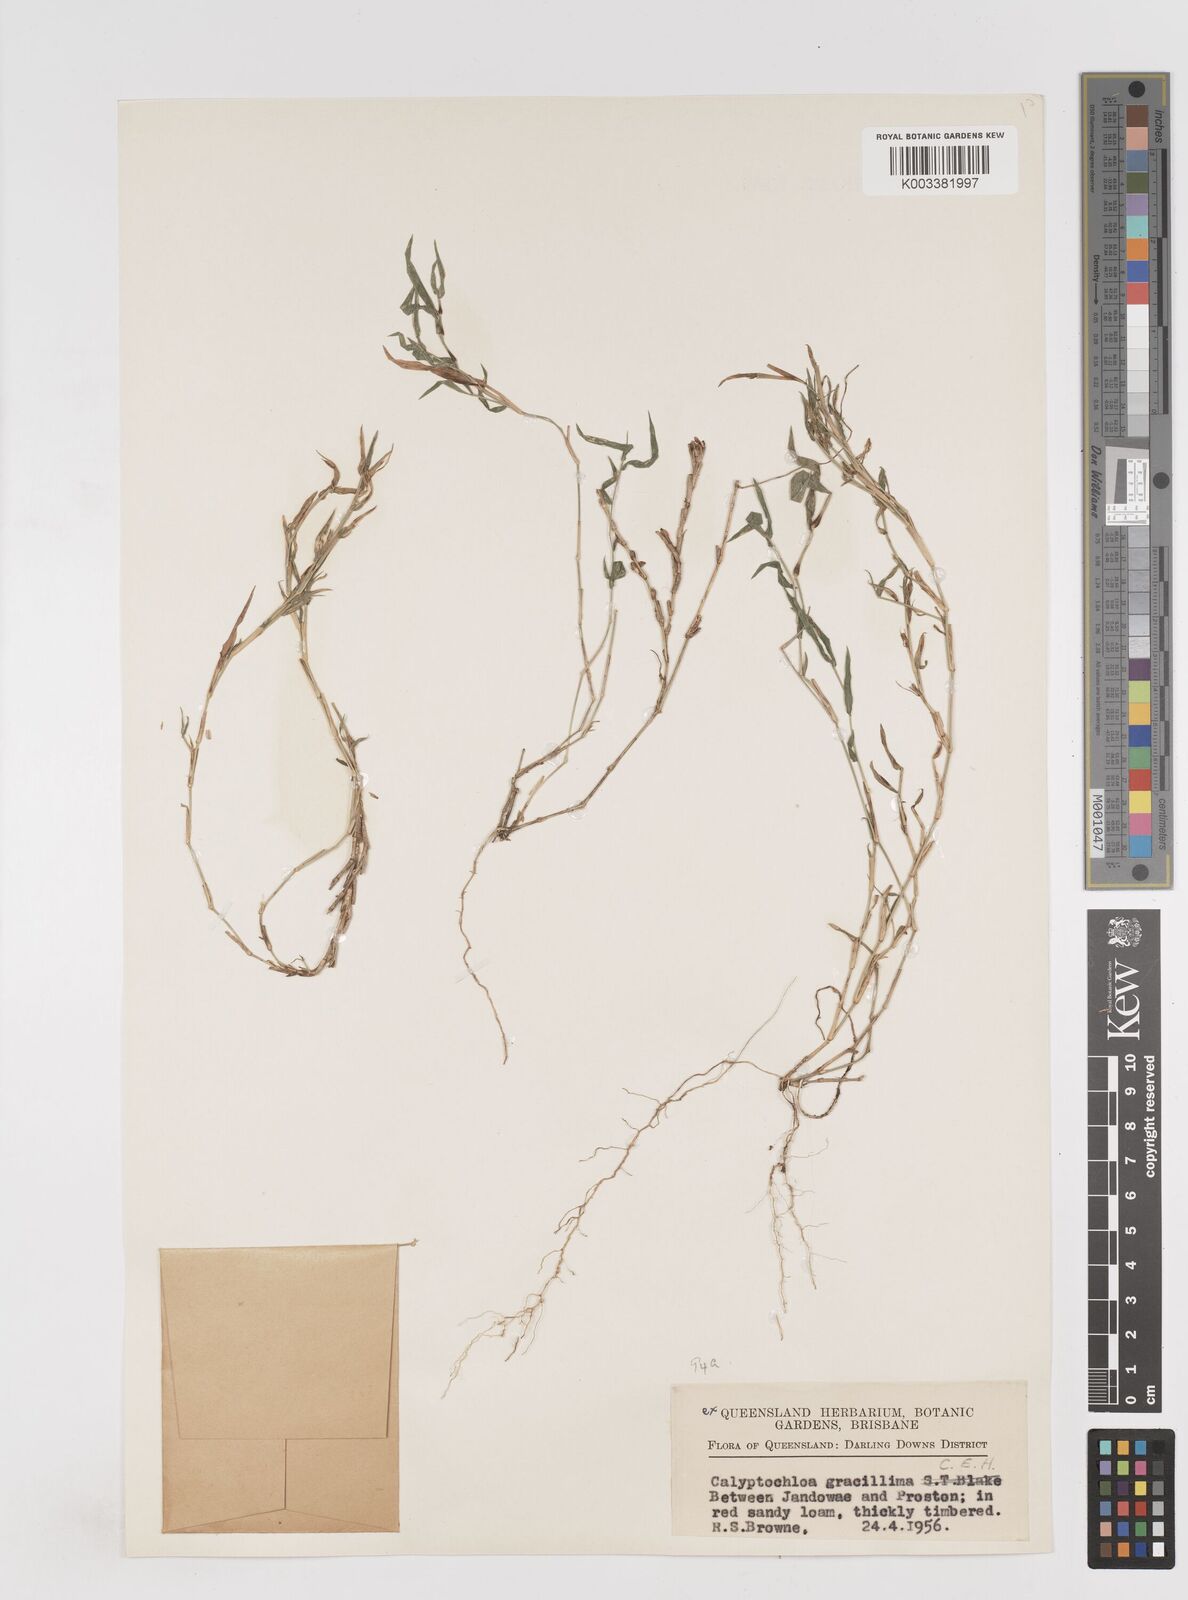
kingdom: Plantae
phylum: Tracheophyta
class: Liliopsida
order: Poales
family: Poaceae
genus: Calyptochloa
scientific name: Calyptochloa gracillima
